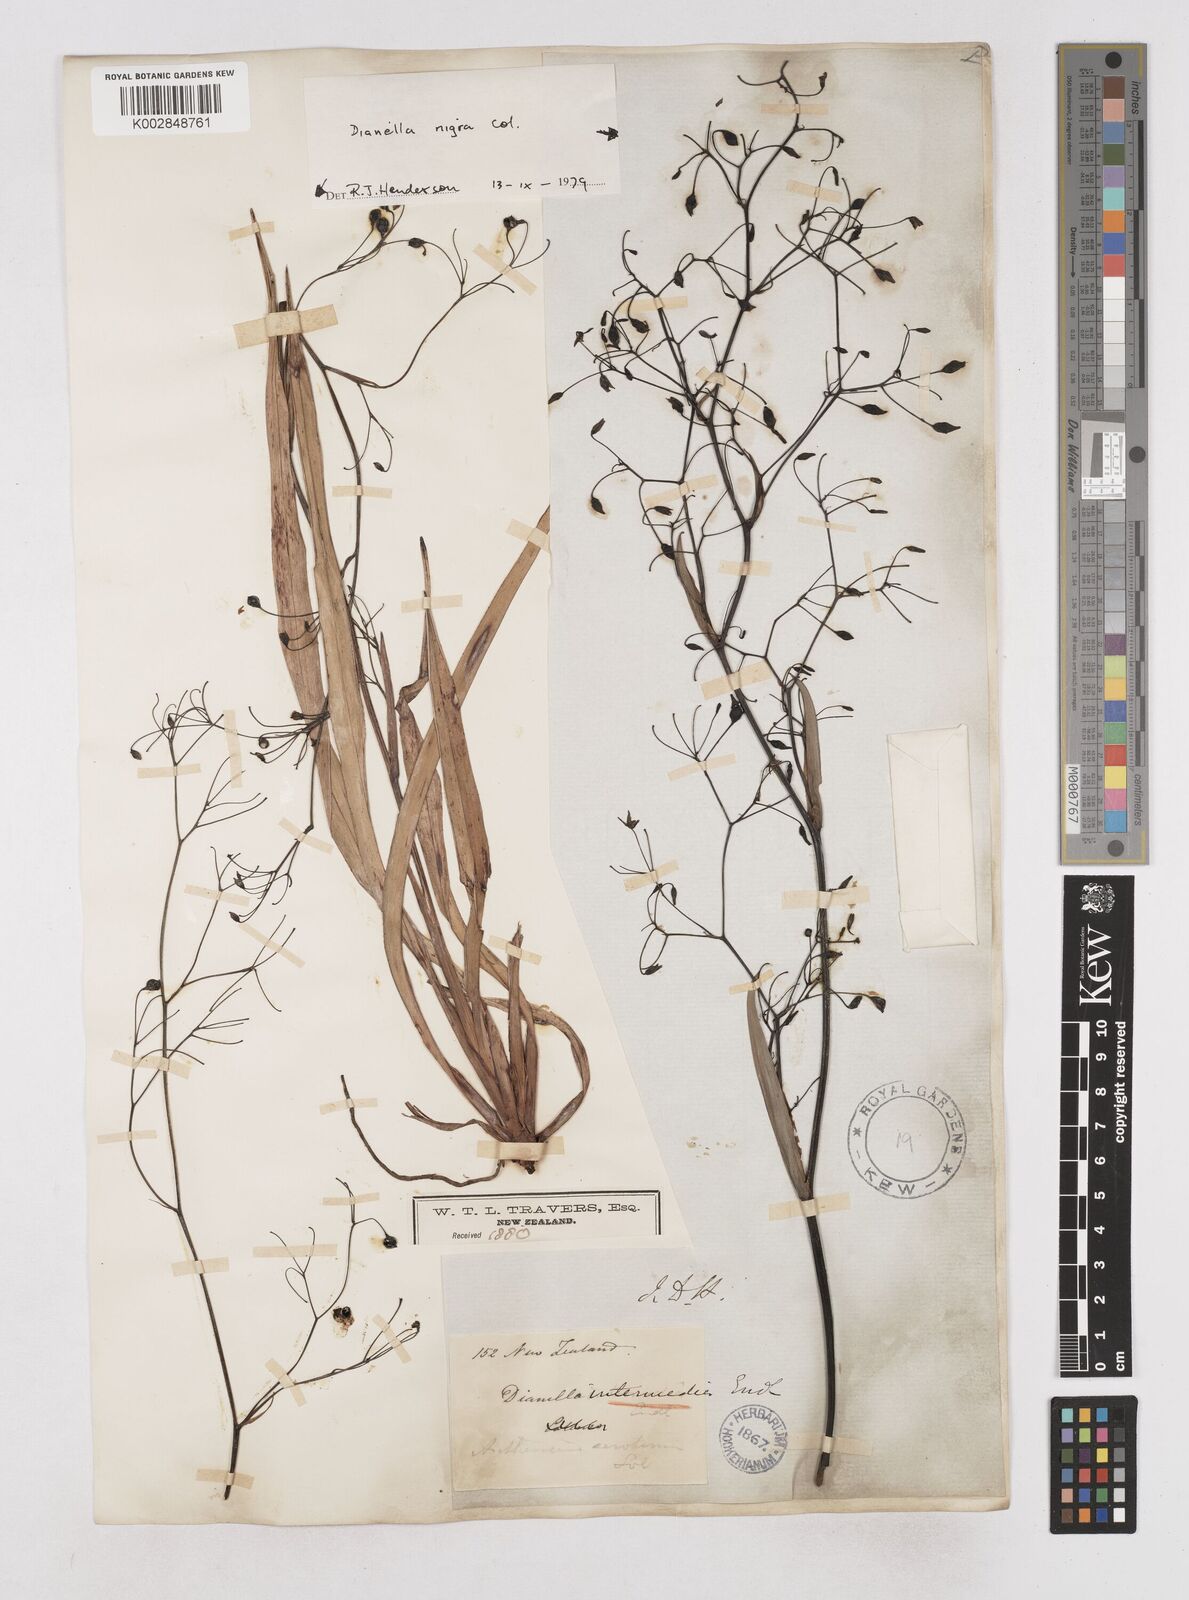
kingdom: Plantae
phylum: Tracheophyta
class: Liliopsida
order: Asparagales
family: Asphodelaceae
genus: Dianella
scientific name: Dianella nigra
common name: New zealand-blueberry
